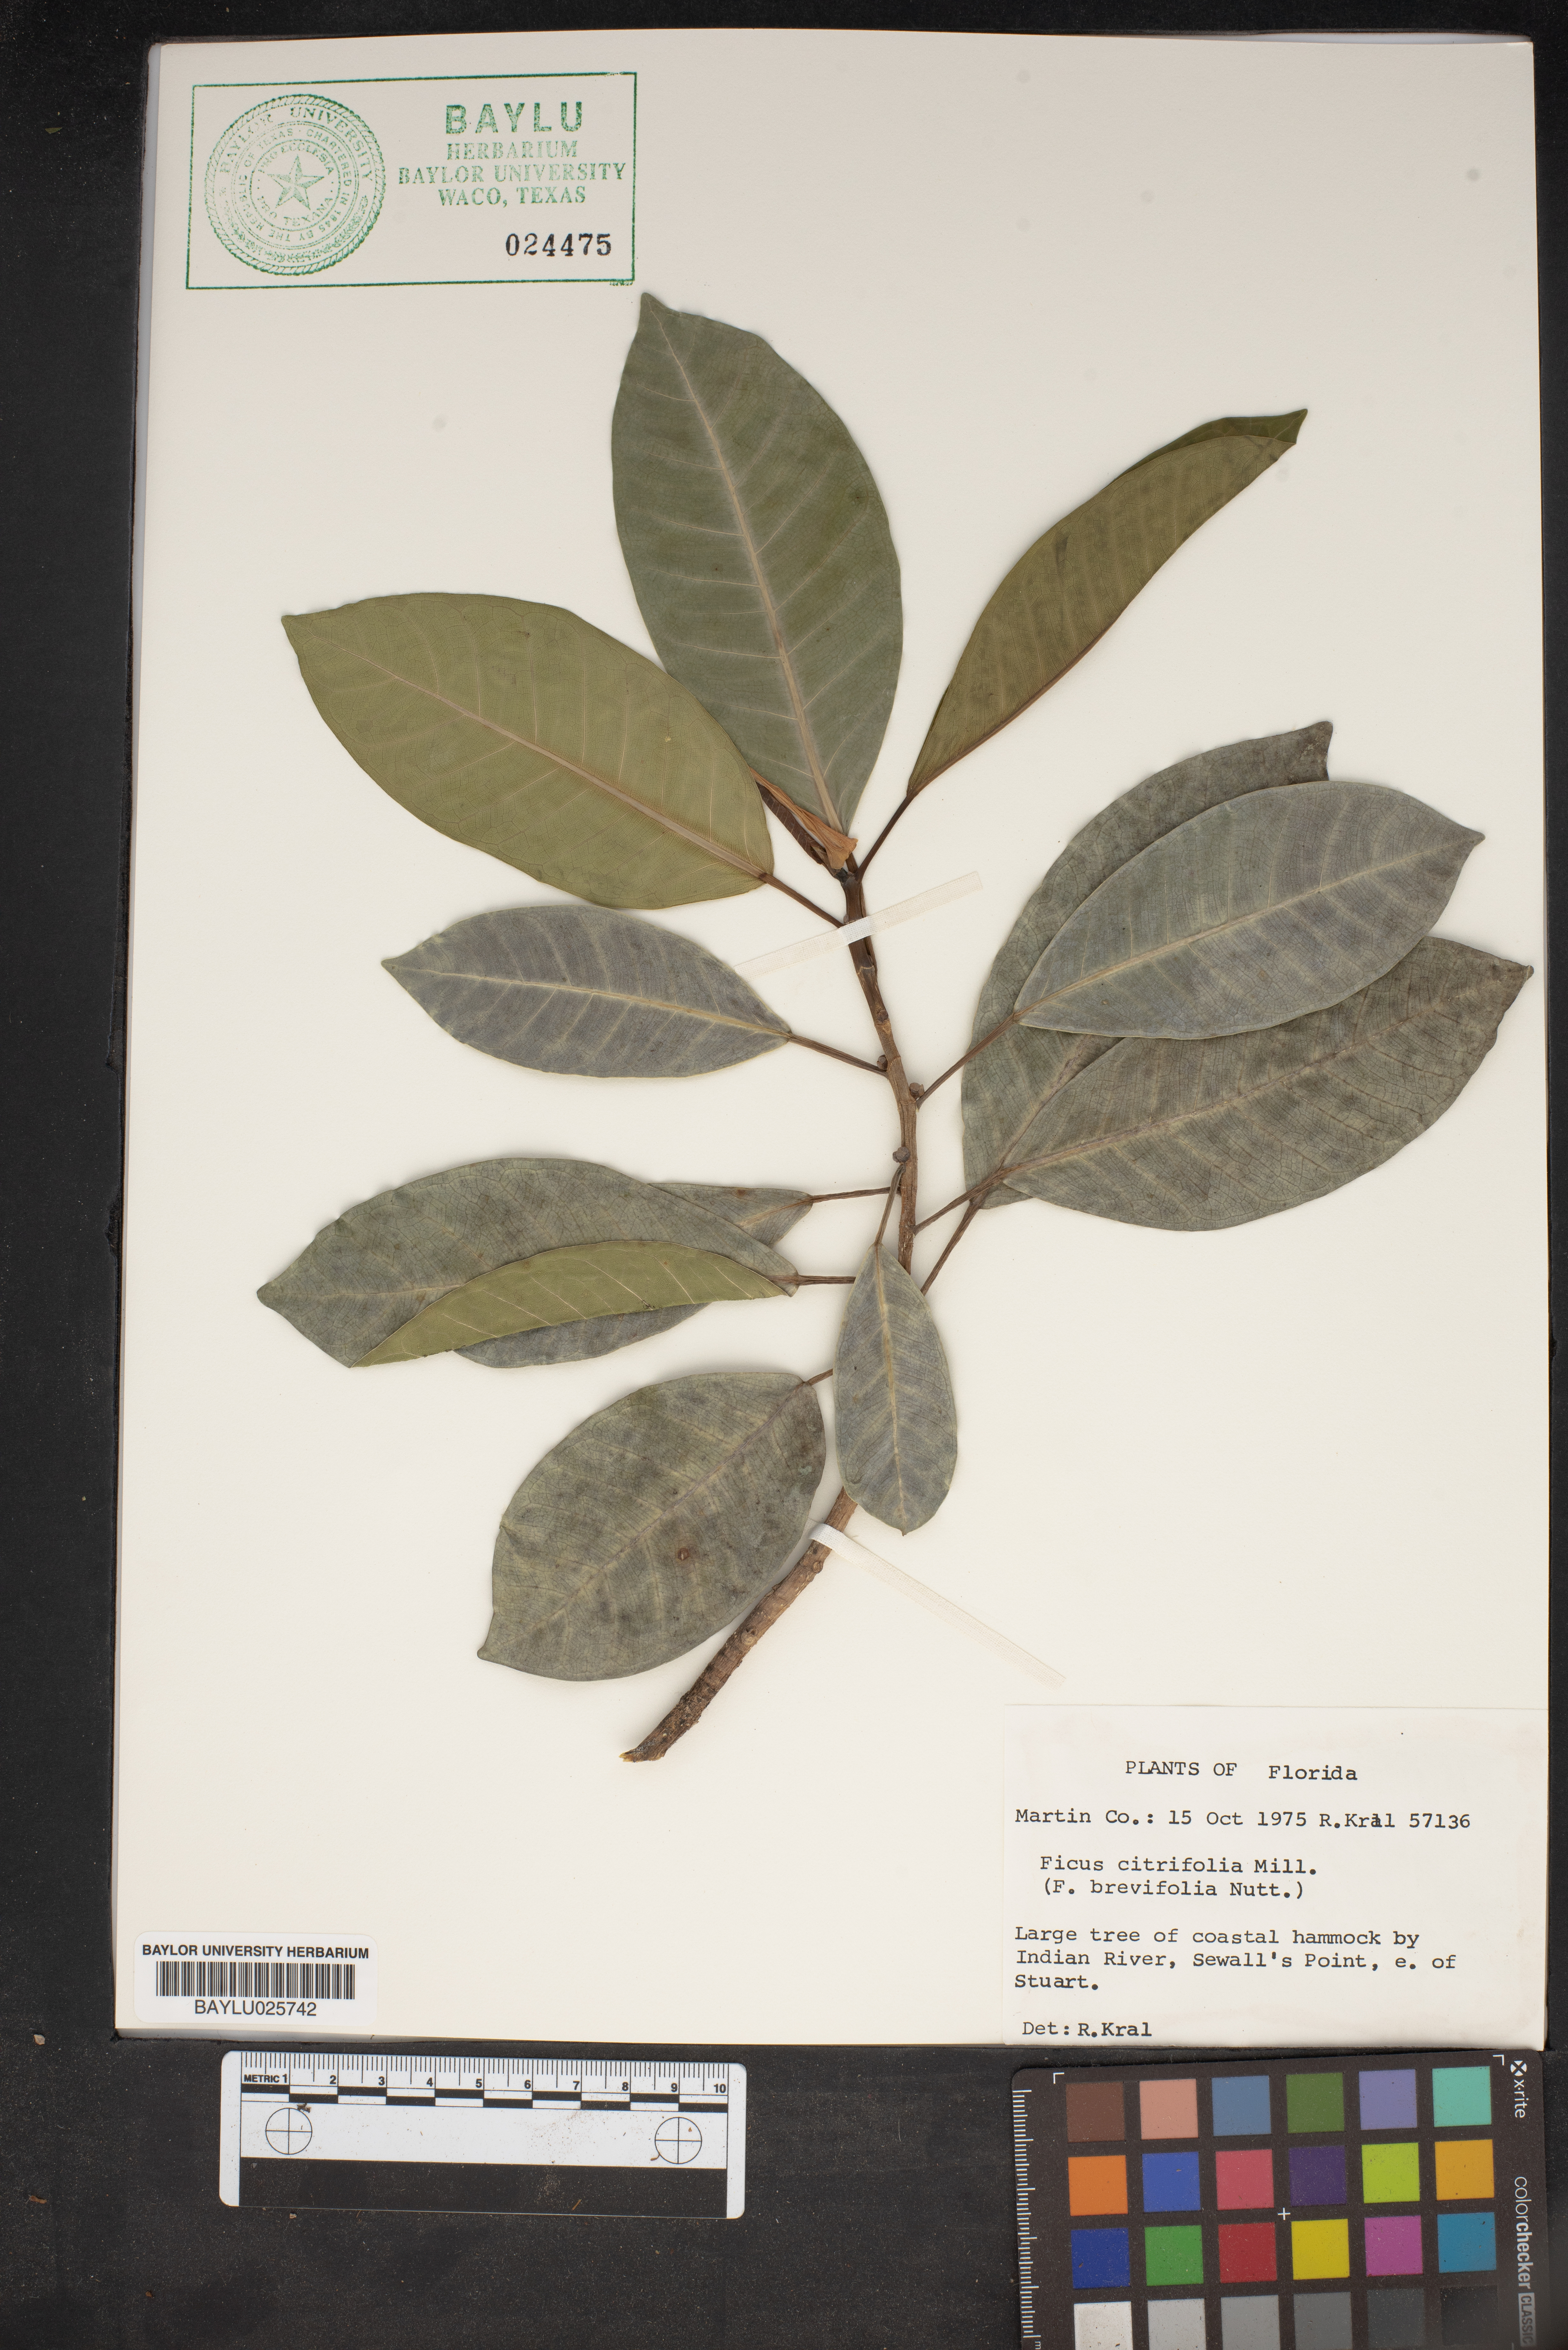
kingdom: Plantae
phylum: Tracheophyta
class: Magnoliopsida
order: Rosales
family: Moraceae
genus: Ficus
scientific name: Ficus citrifolia
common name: Strangler fig
